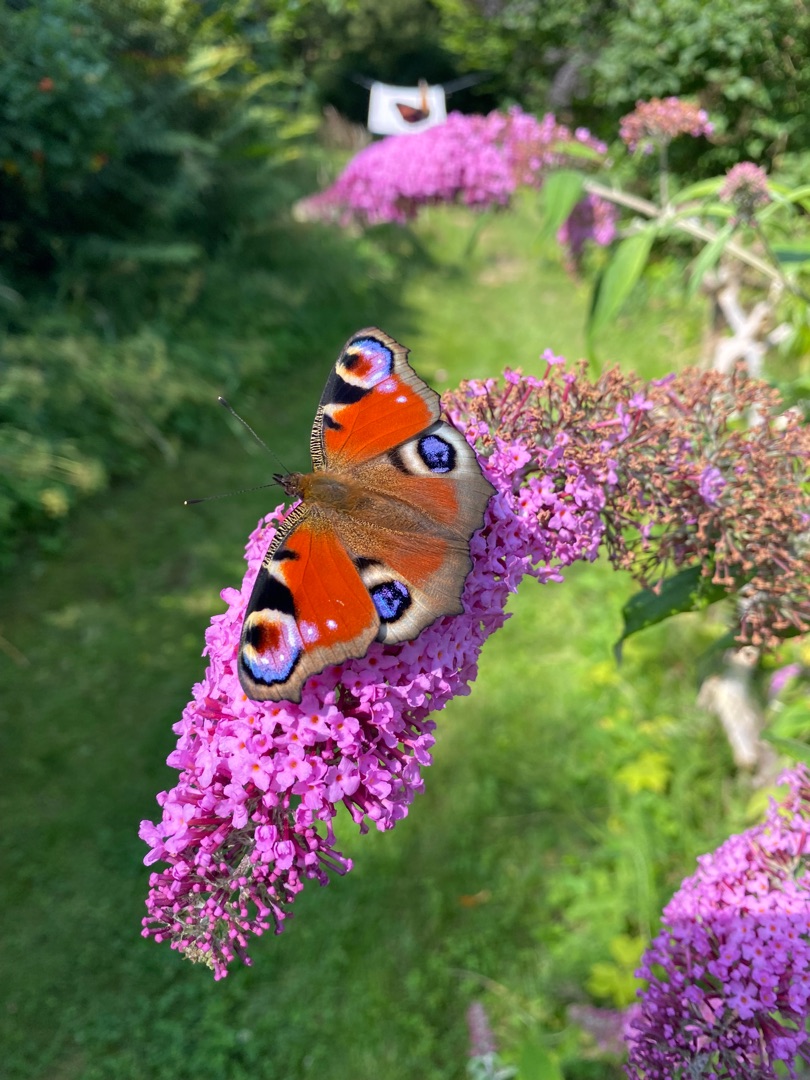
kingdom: Animalia
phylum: Arthropoda
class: Insecta
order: Lepidoptera
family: Nymphalidae
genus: Aglais
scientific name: Aglais io
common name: Dagpåfugleøje
